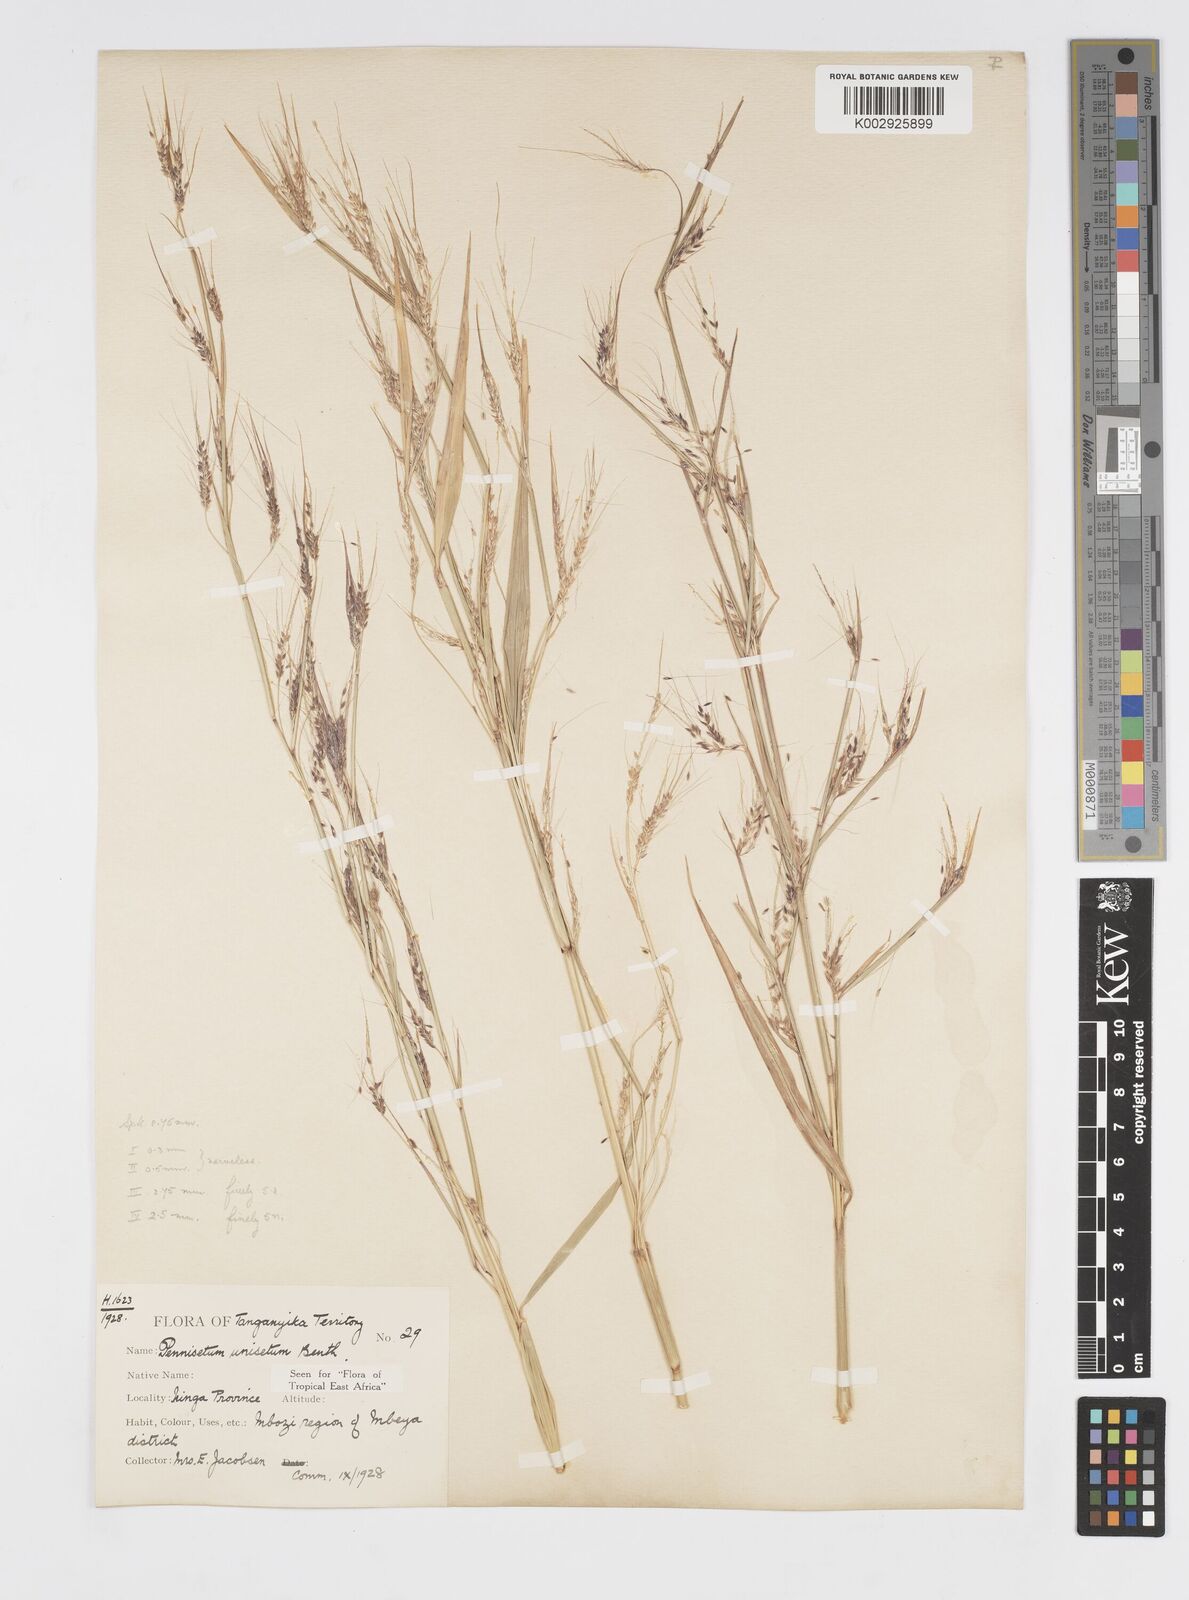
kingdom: Plantae
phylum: Tracheophyta
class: Liliopsida
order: Poales
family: Poaceae
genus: Cenchrus
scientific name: Cenchrus unisetus
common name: Natal grass
